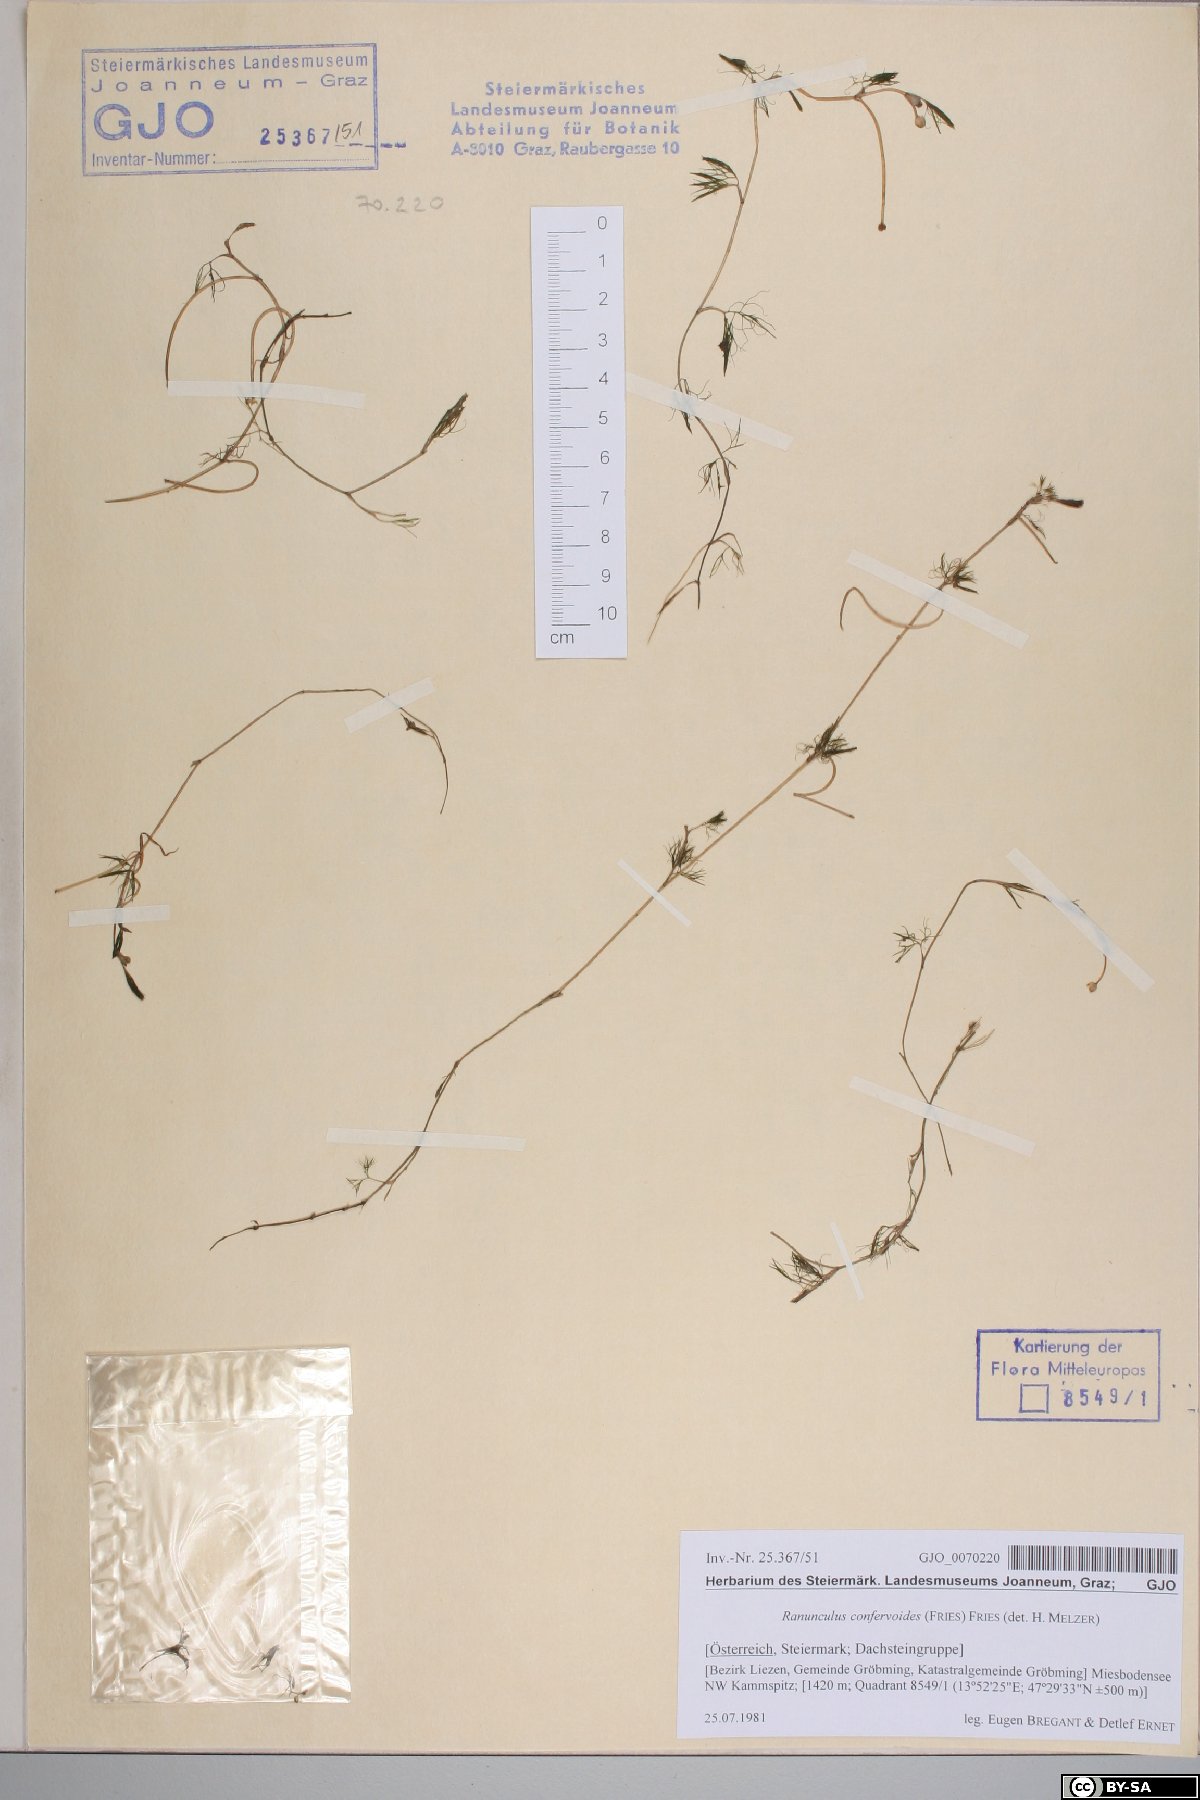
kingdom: Plantae
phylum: Tracheophyta
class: Magnoliopsida
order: Ranunculales
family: Ranunculaceae
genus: Ranunculus
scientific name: Ranunculus confervoides
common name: Delicate buttercup
